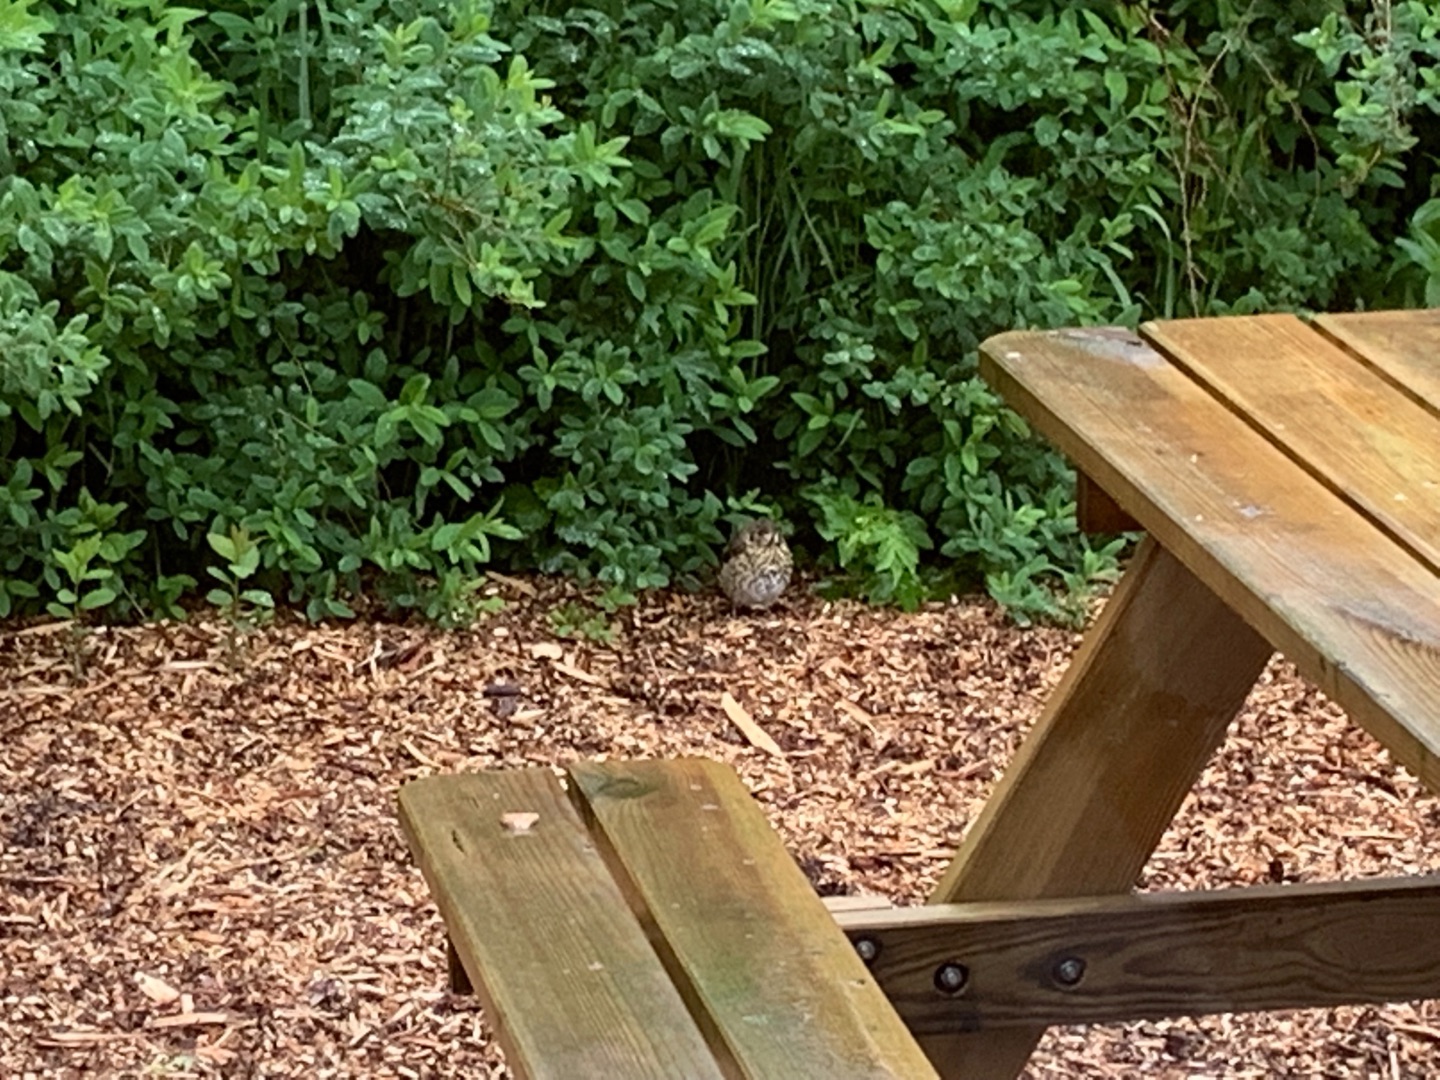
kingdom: Animalia
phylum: Chordata
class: Aves
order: Passeriformes
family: Turdidae
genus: Turdus
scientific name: Turdus philomelos
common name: Sangdrossel
